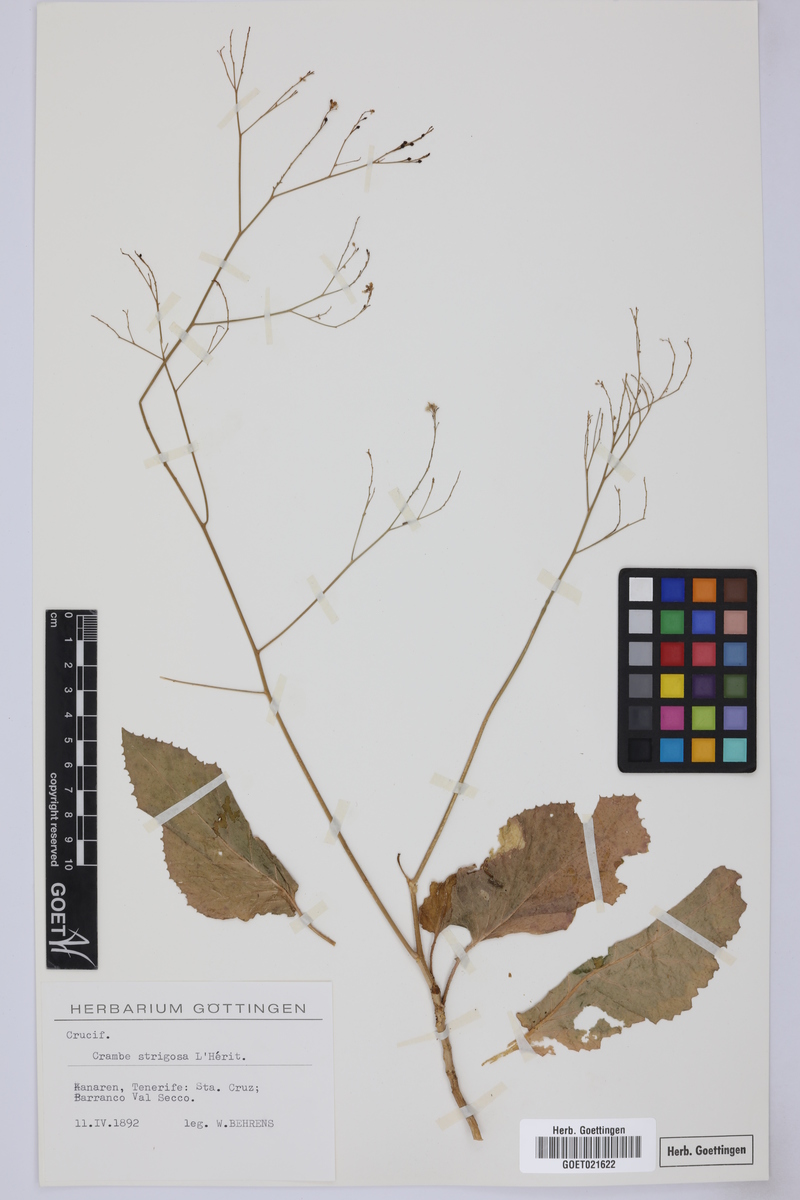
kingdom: Plantae
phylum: Tracheophyta
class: Magnoliopsida
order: Brassicales
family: Brassicaceae
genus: Crambe
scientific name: Crambe strigosa
